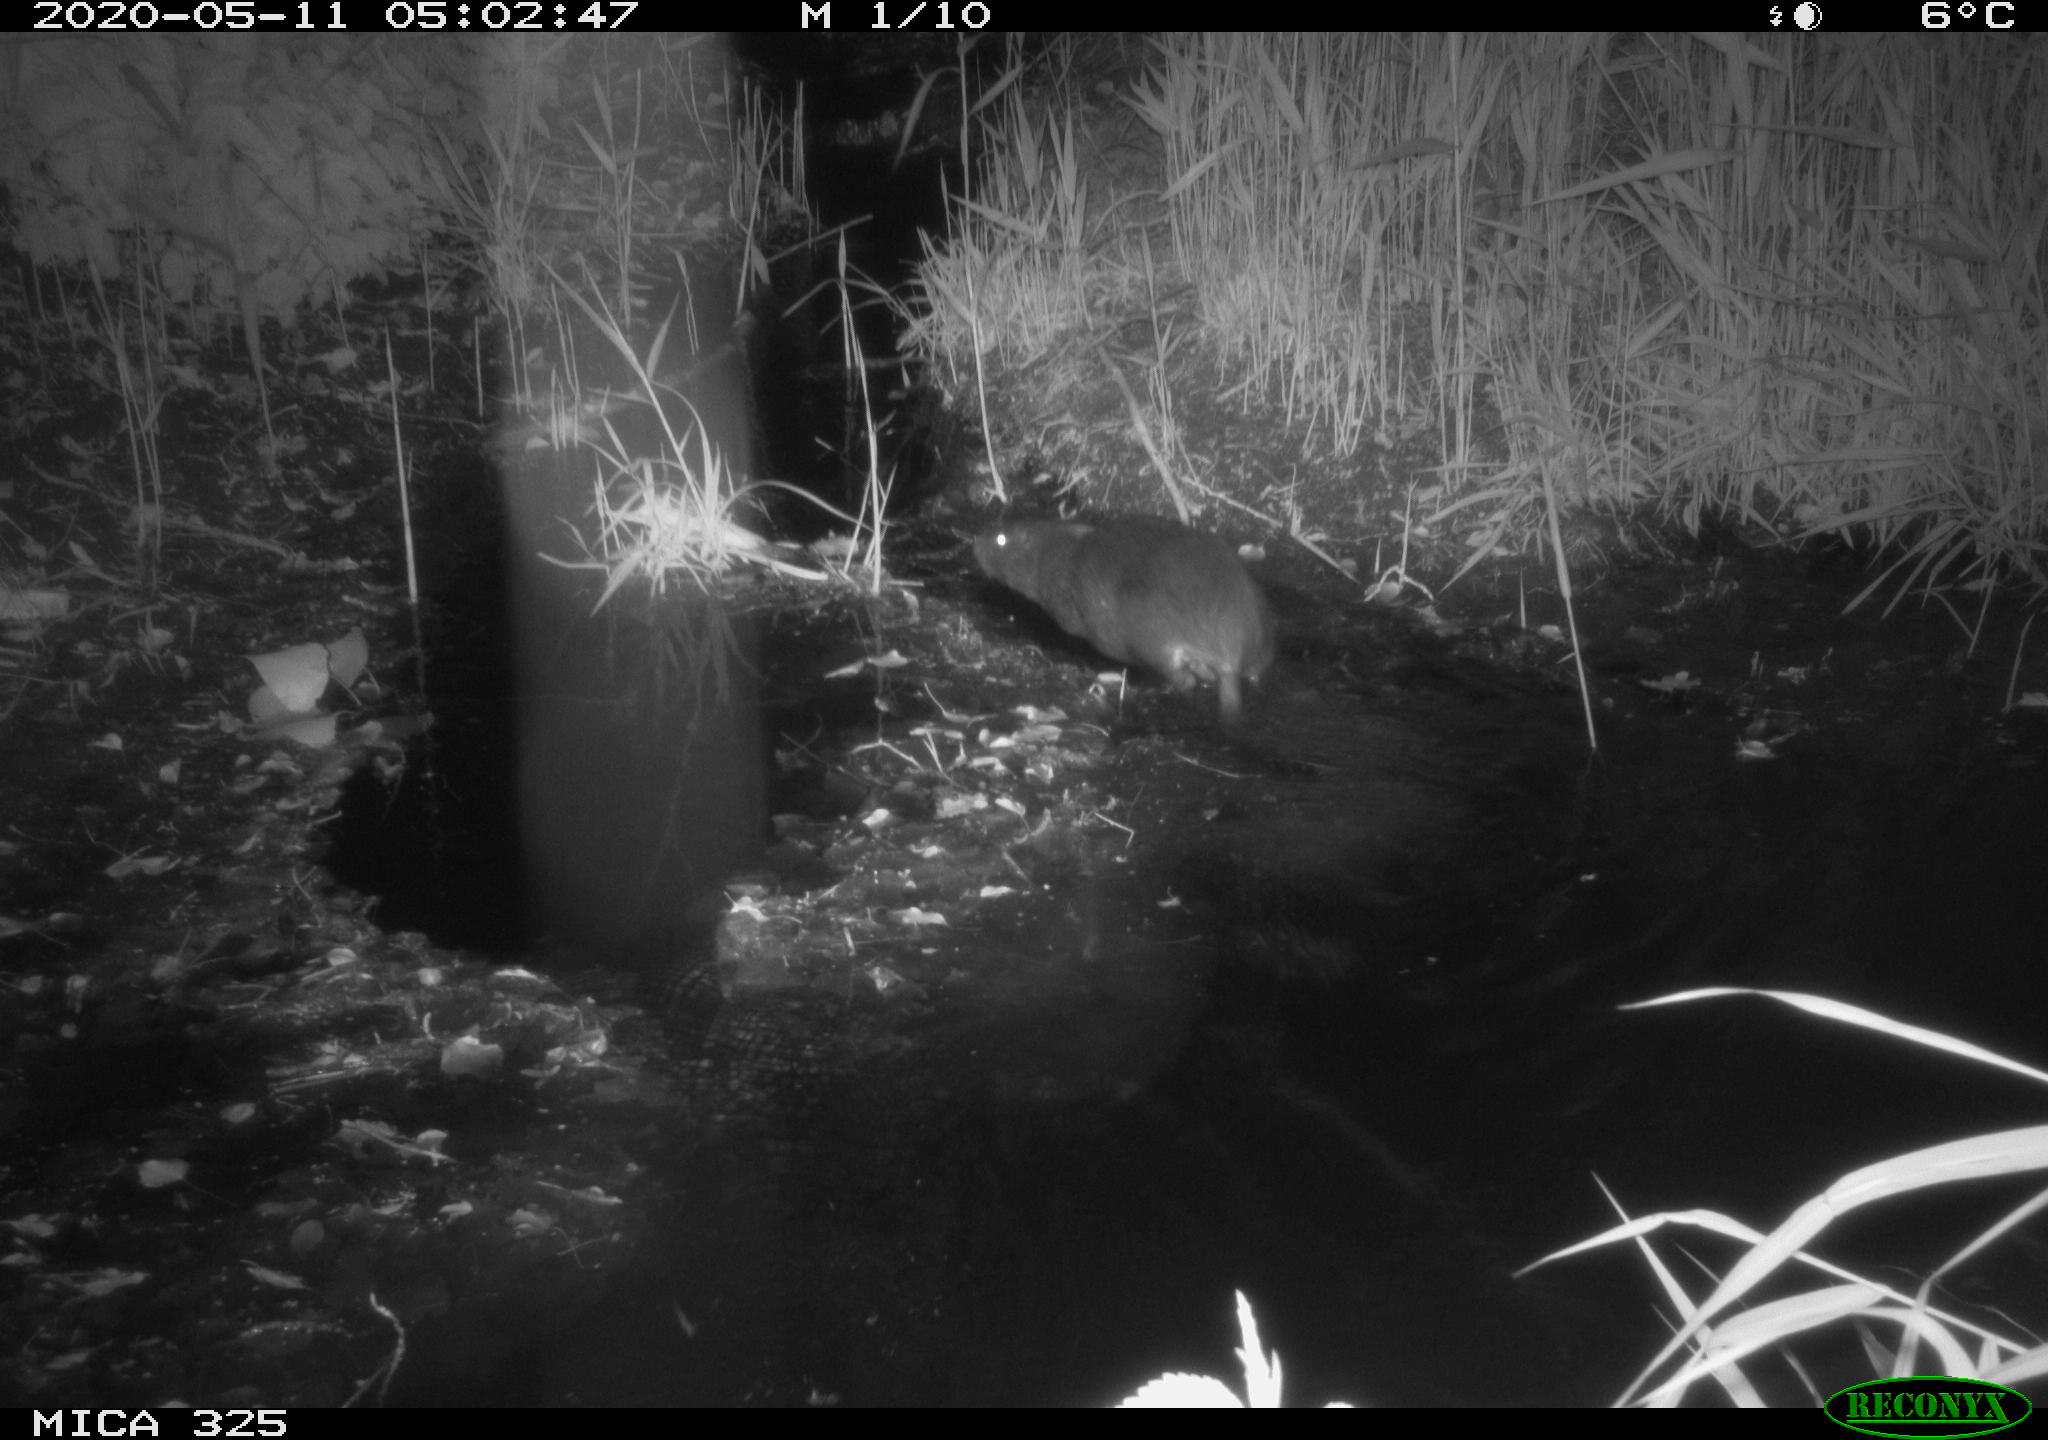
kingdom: Animalia
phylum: Chordata
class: Mammalia
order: Rodentia
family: Myocastoridae
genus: Myocastor
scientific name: Myocastor coypus
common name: Coypu
